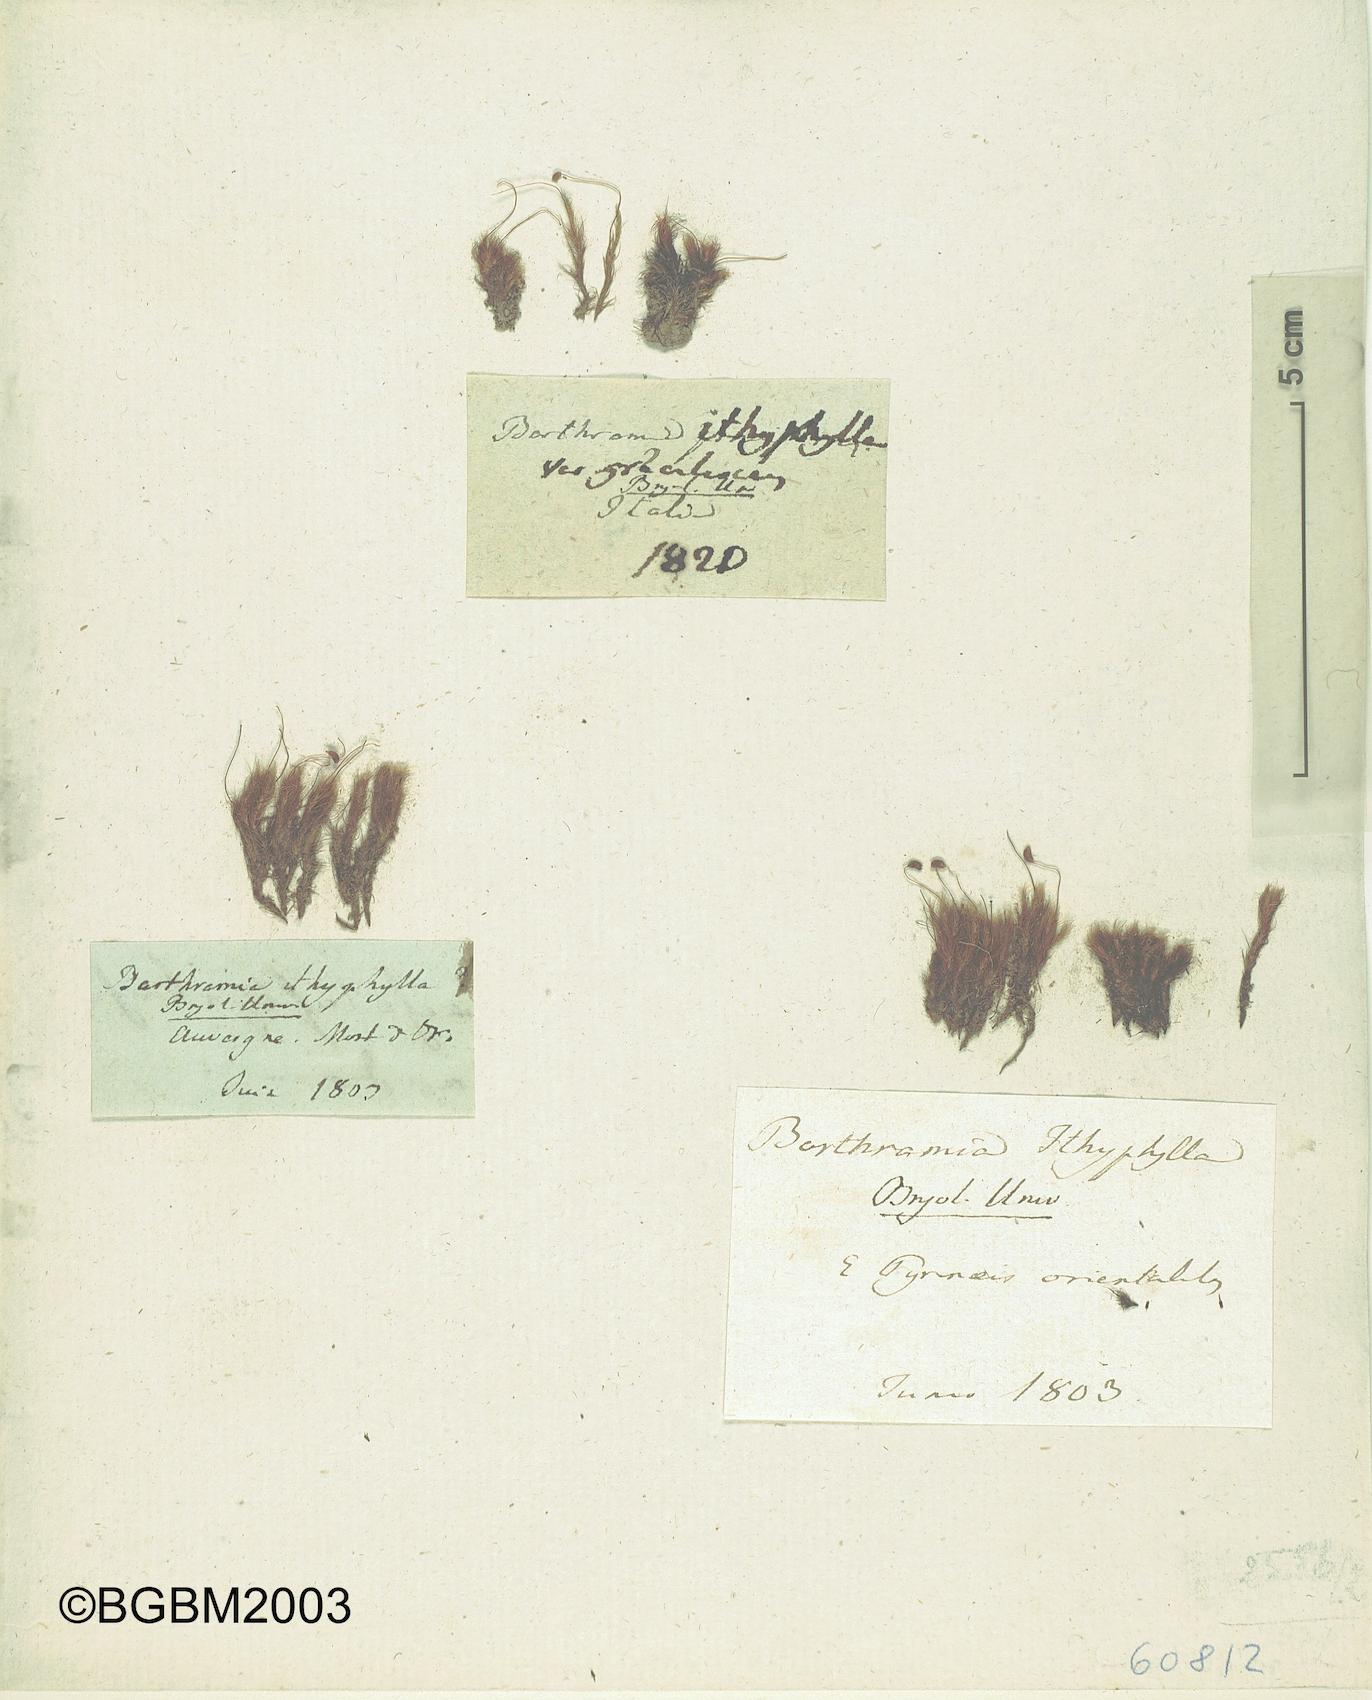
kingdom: Plantae
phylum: Bryophyta
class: Bryopsida
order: Bartramiales
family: Bartramiaceae
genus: Bartramia
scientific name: Bartramia ithyphylla
